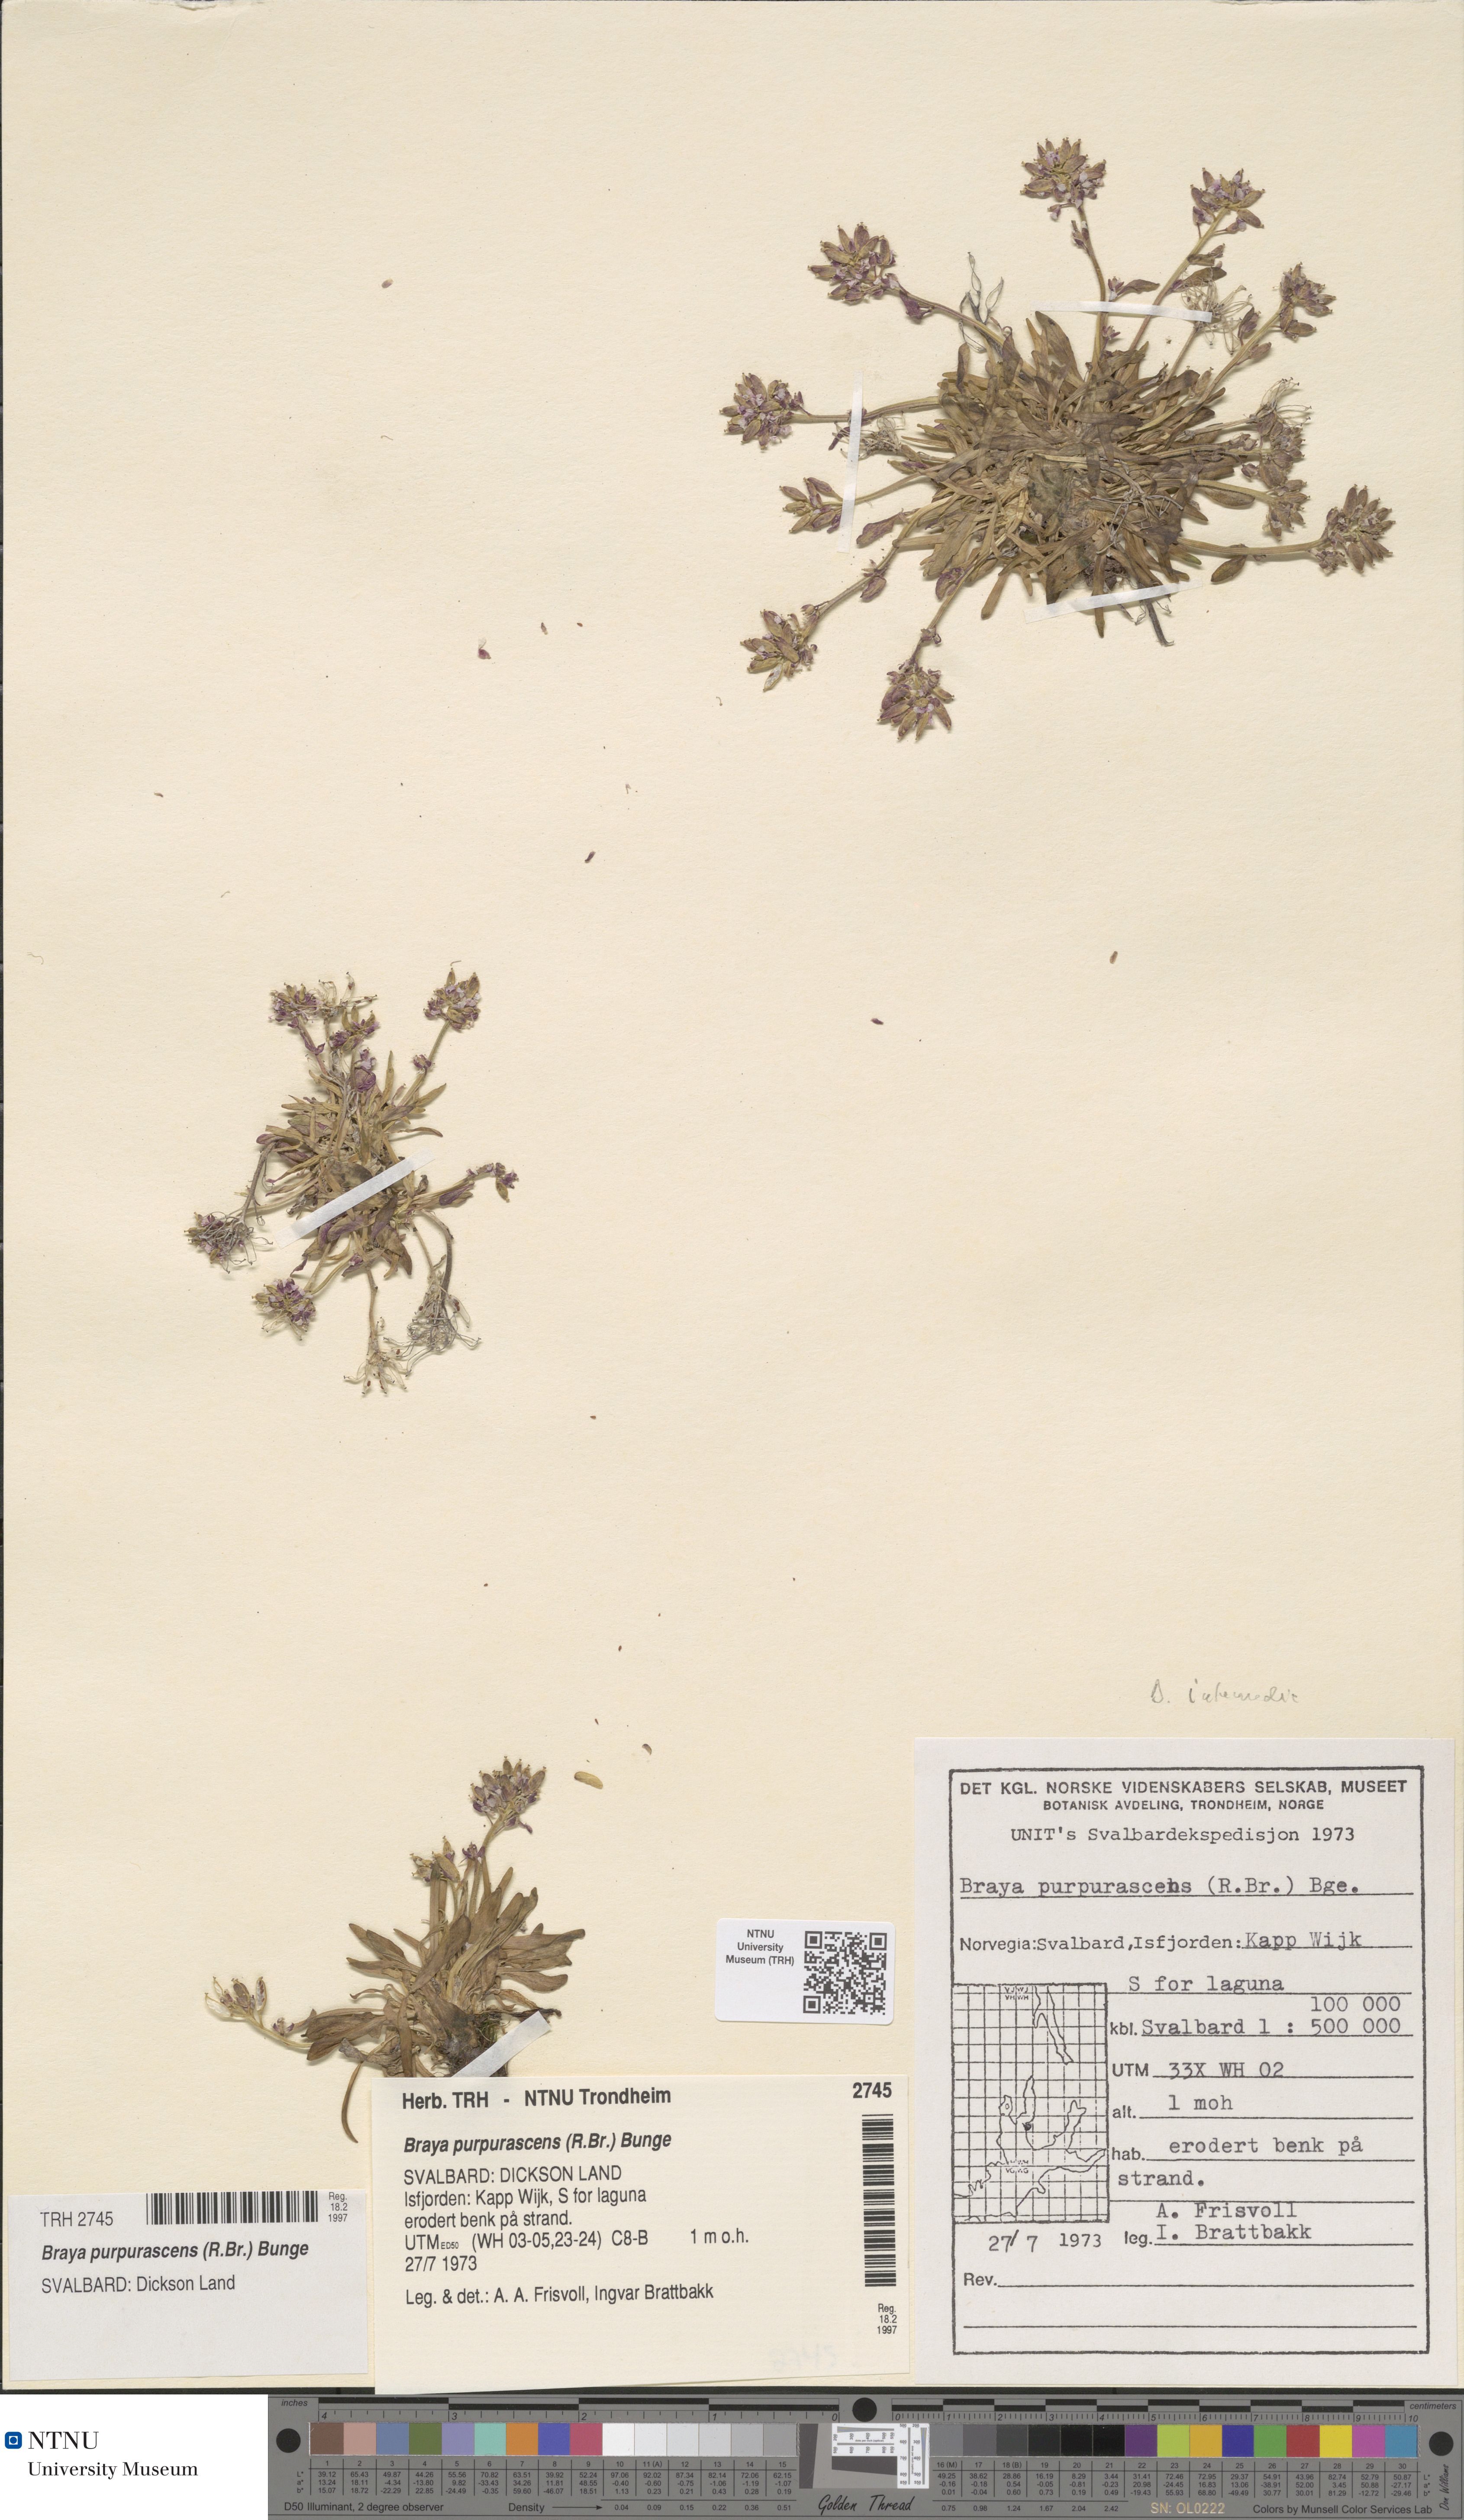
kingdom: Plantae
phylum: Tracheophyta
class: Magnoliopsida
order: Brassicales
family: Brassicaceae
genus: Braya
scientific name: Braya purpurascens
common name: Alpine braya
